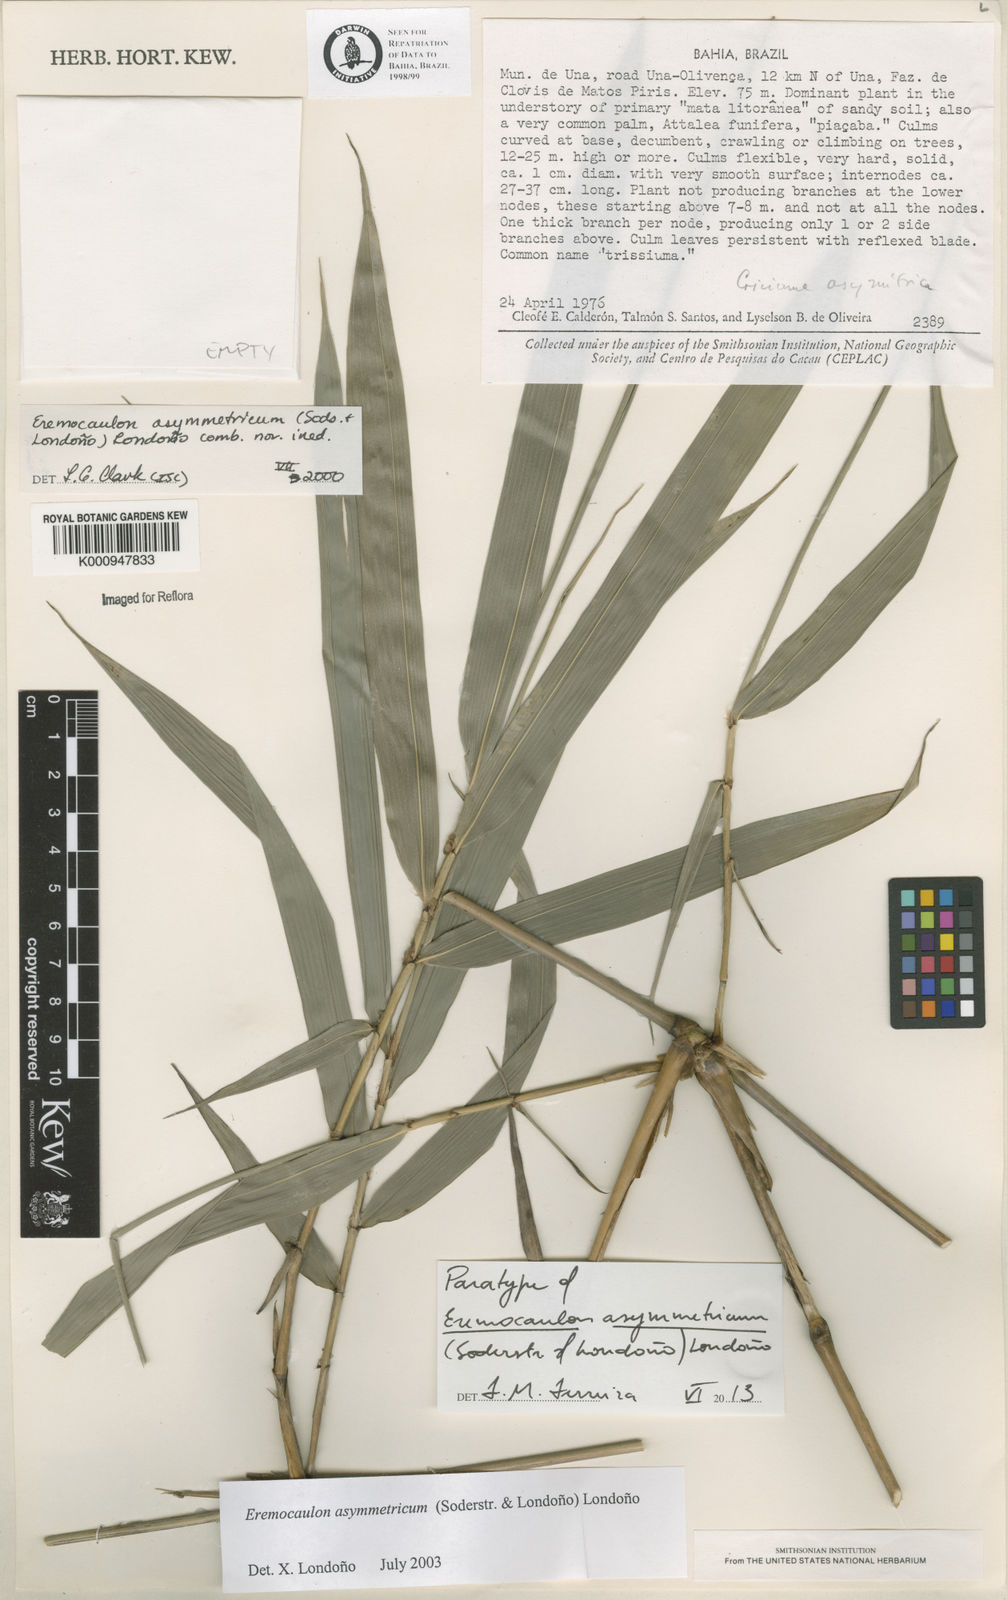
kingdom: Plantae
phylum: Tracheophyta
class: Liliopsida
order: Poales
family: Poaceae
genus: Eremocaulon
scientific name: Eremocaulon
